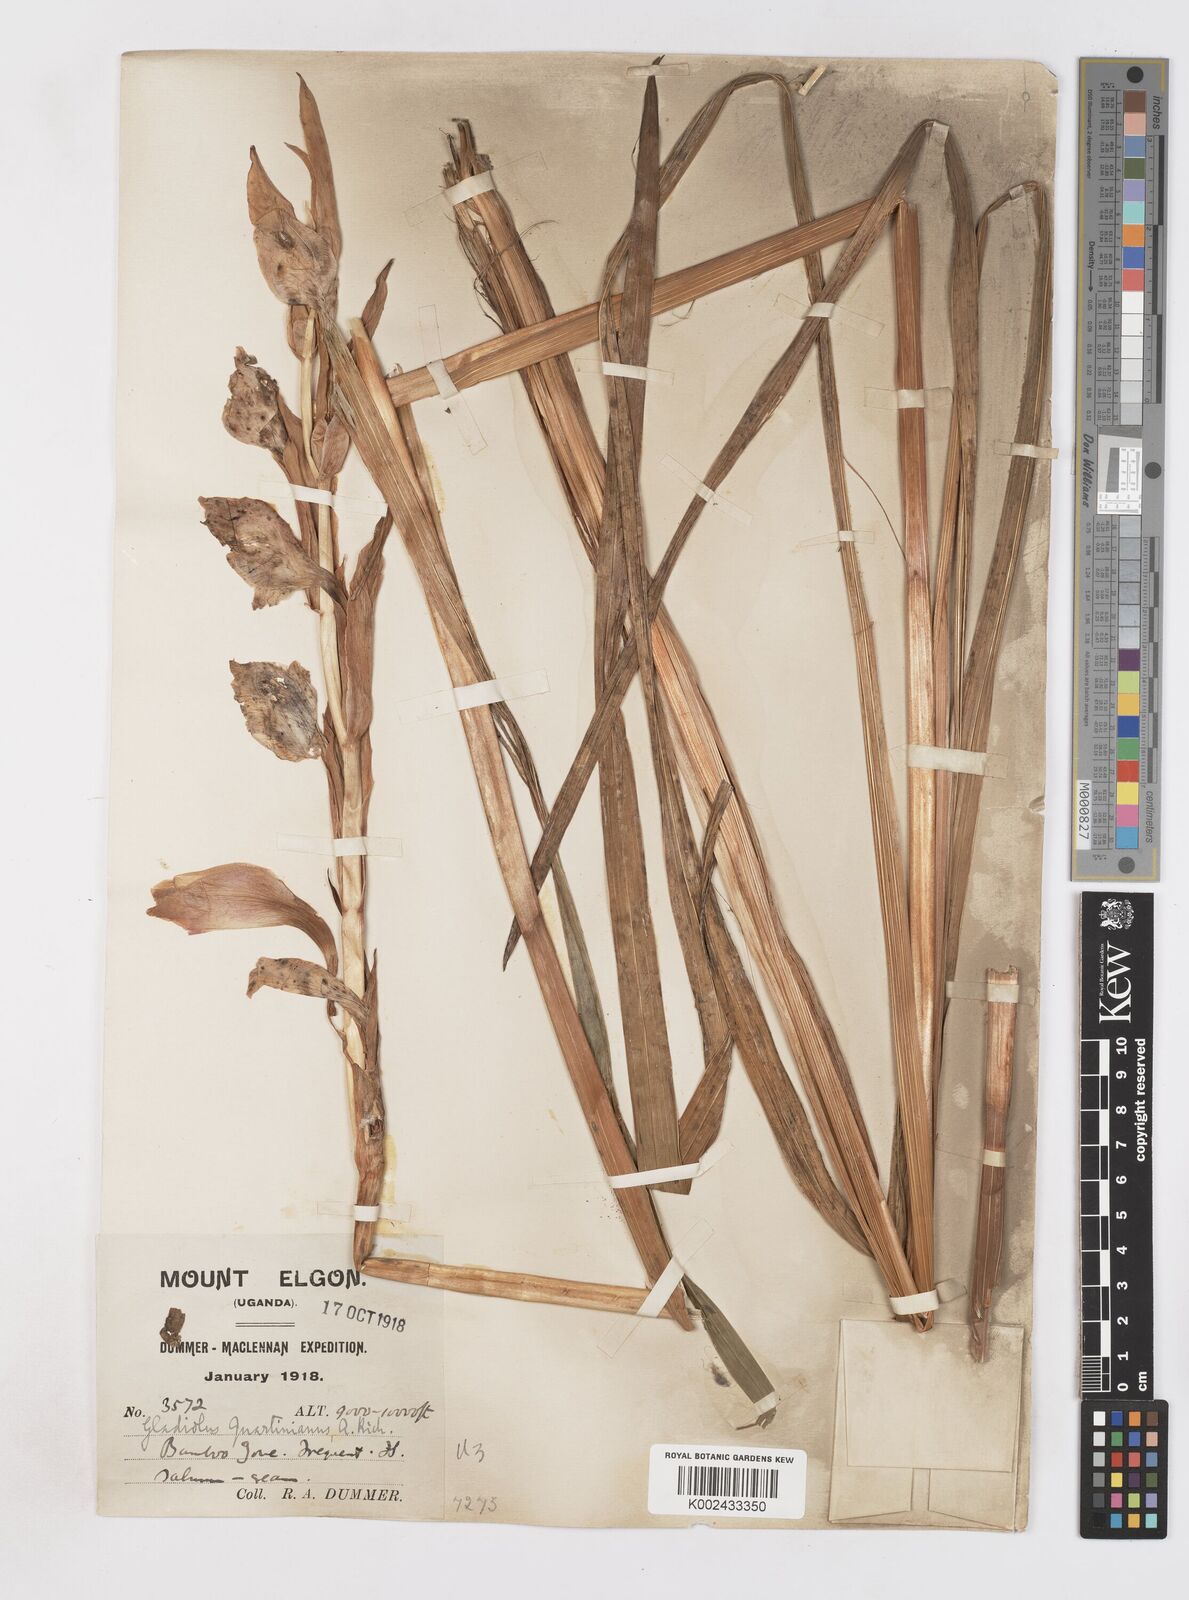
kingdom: Plantae
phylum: Tracheophyta
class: Liliopsida
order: Asparagales
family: Iridaceae
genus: Gladiolus
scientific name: Gladiolus dalenii
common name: Cornflag
